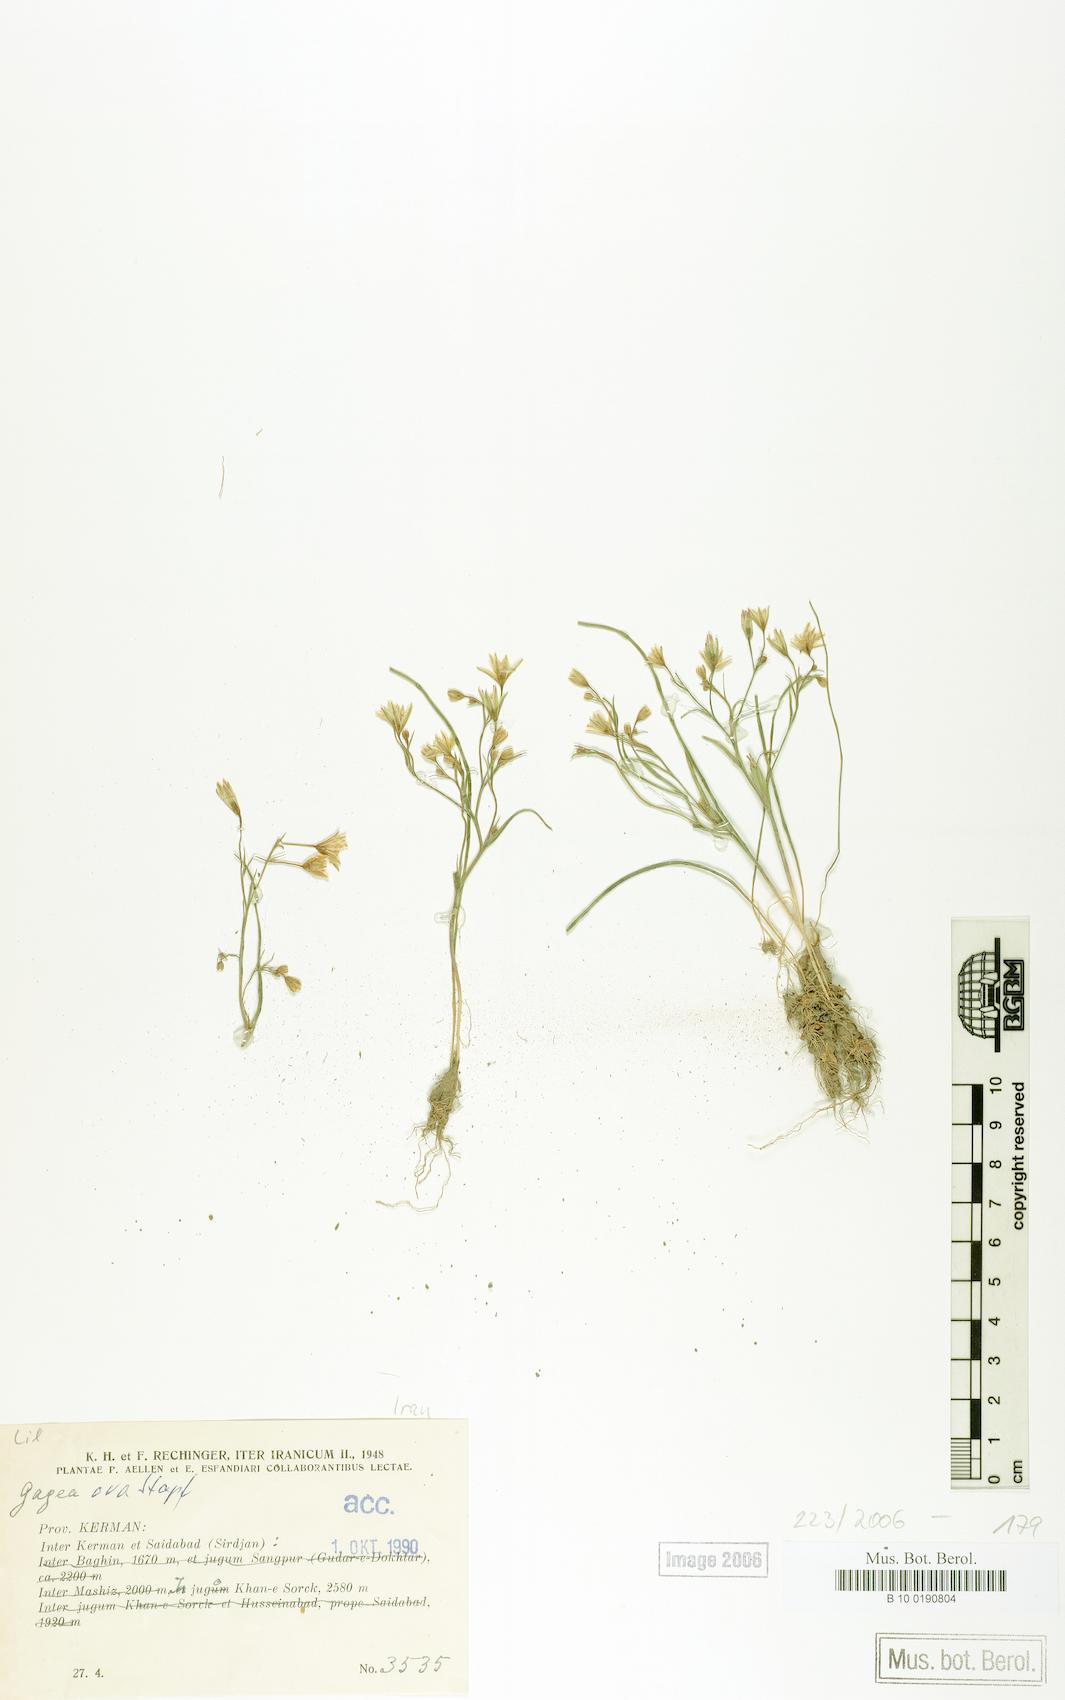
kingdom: Plantae
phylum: Tracheophyta
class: Liliopsida
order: Liliales
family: Liliaceae
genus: Gagea
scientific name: Gagea kunawurensis
